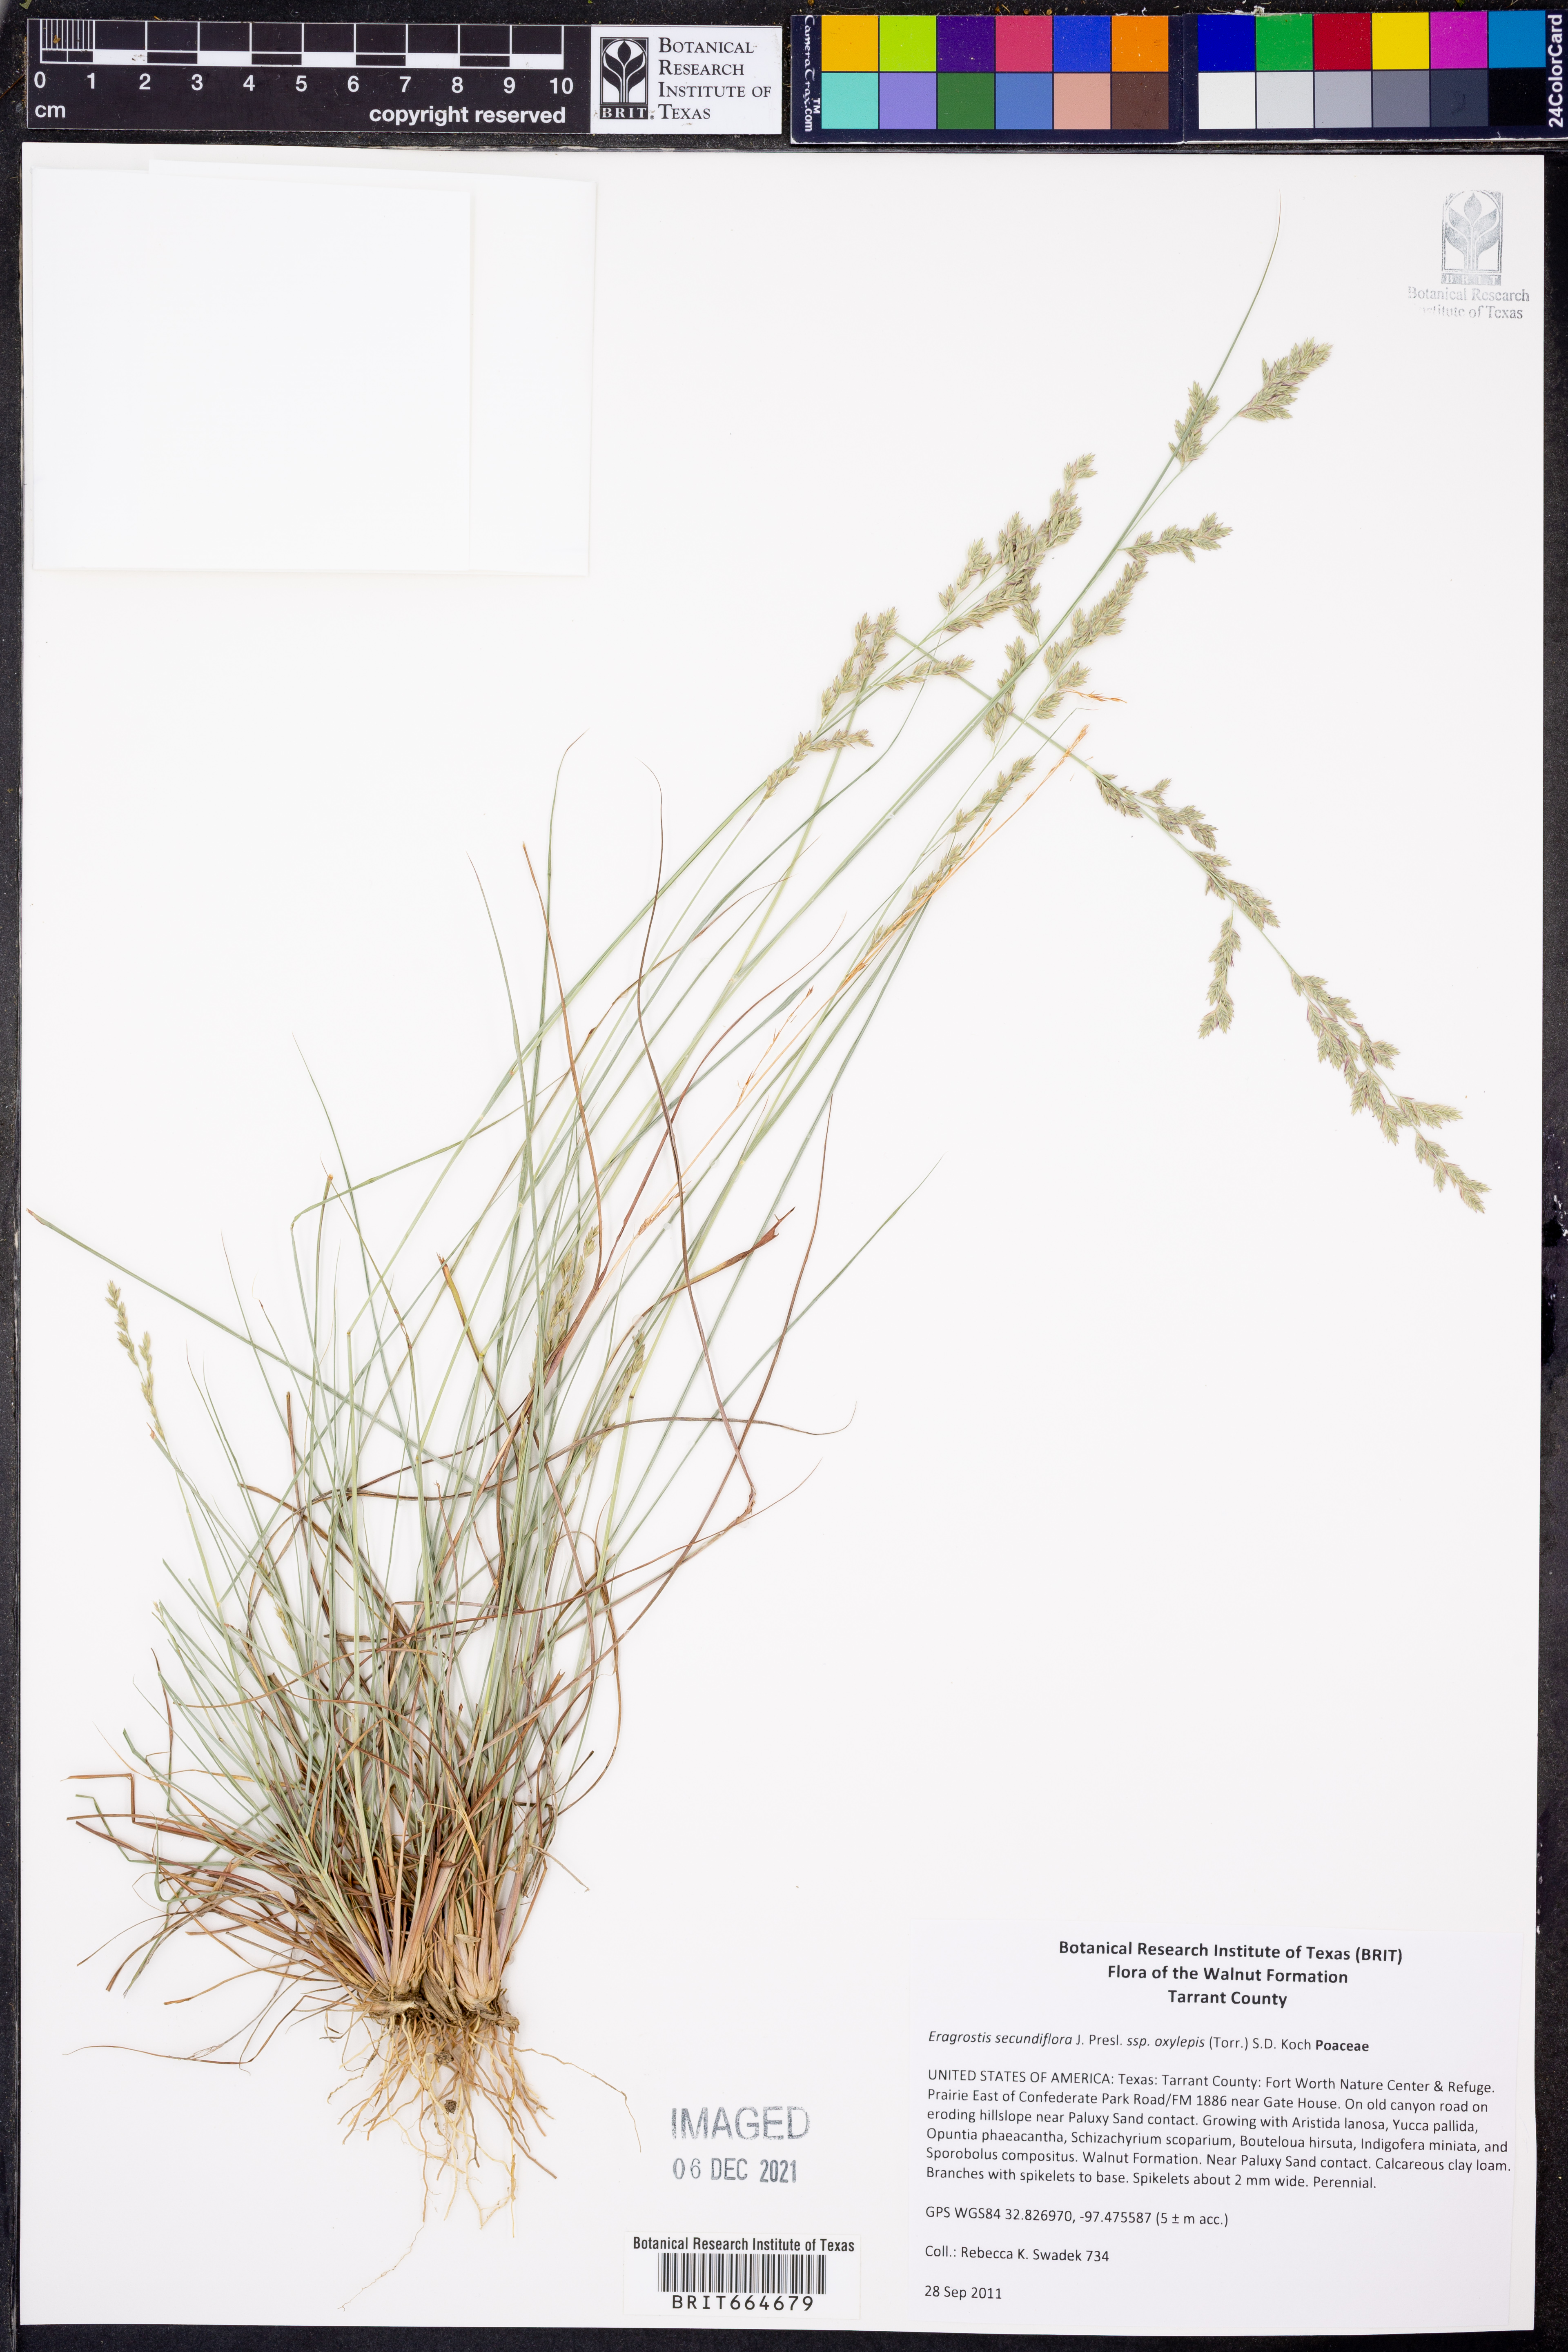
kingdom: Plantae
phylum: Tracheophyta
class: Liliopsida
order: Poales
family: Poaceae
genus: Eragrostis
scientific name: Eragrostis secundiflora
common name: Red love grass
